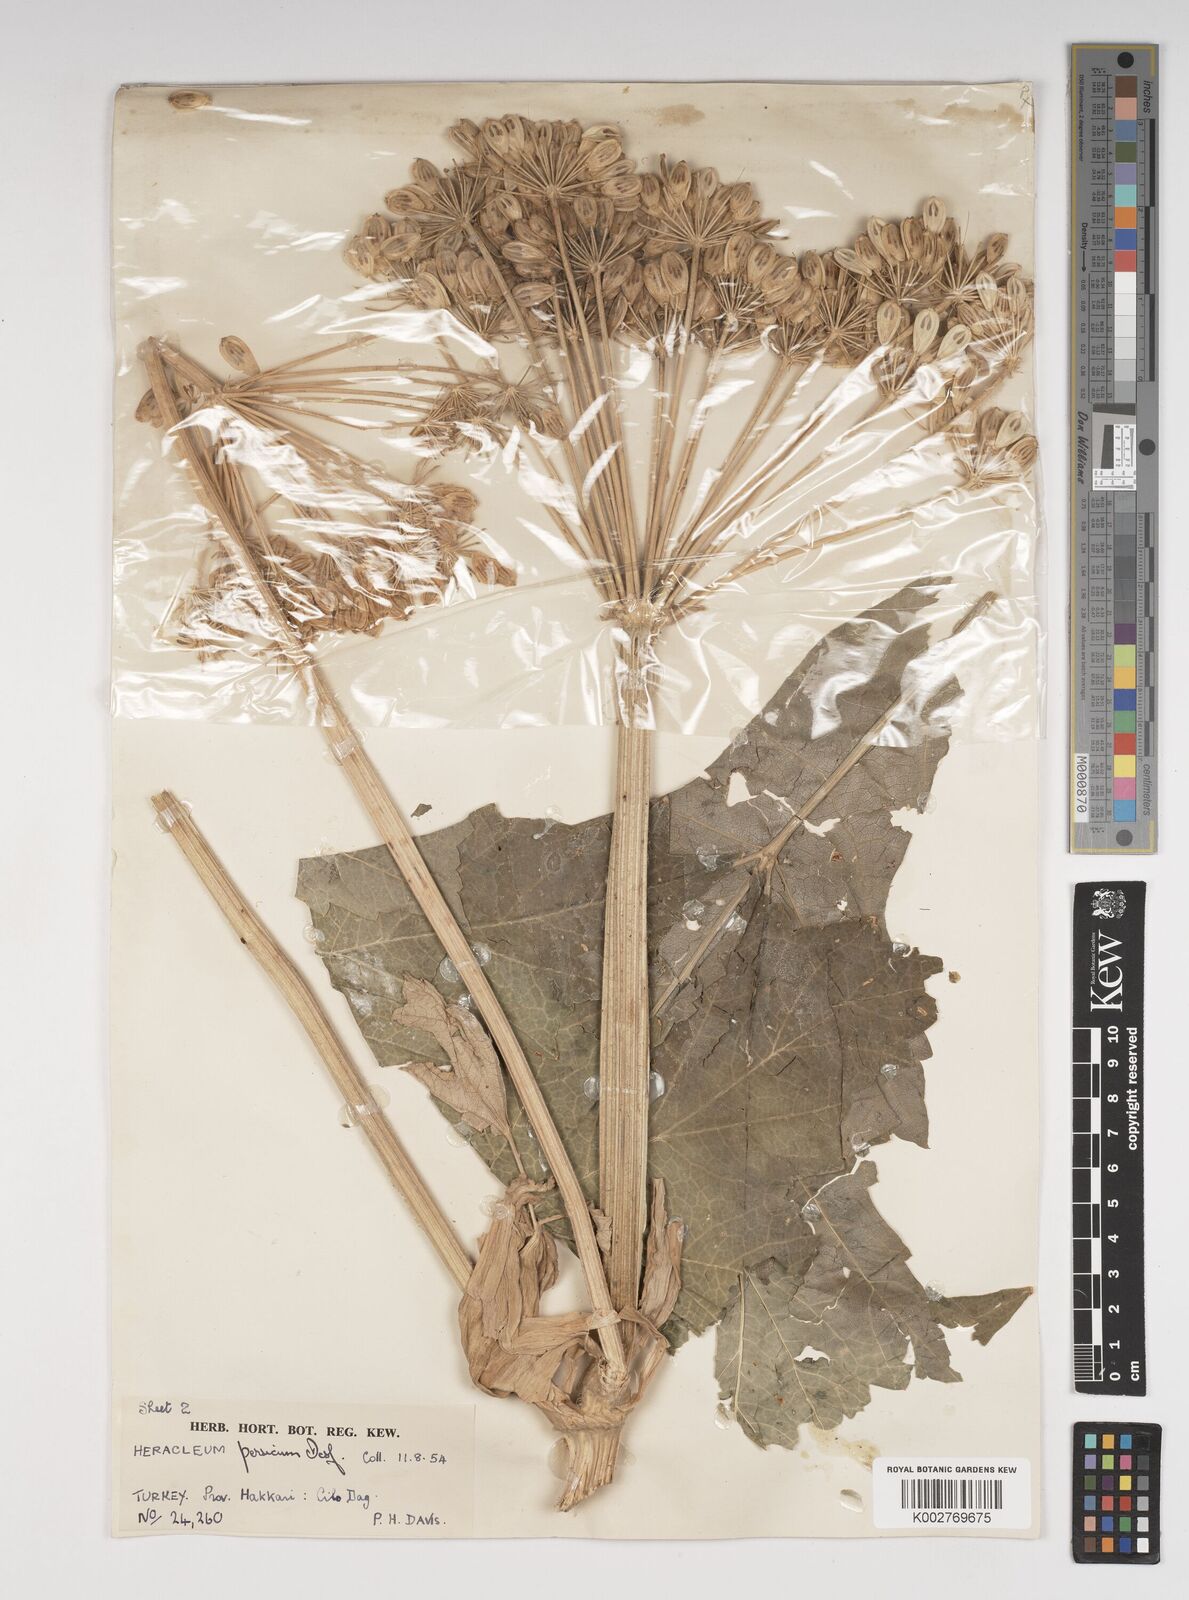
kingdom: Plantae
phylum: Tracheophyta
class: Magnoliopsida
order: Apiales
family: Apiaceae
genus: Heracleum
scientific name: Heracleum persicum
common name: Persian hogweed
